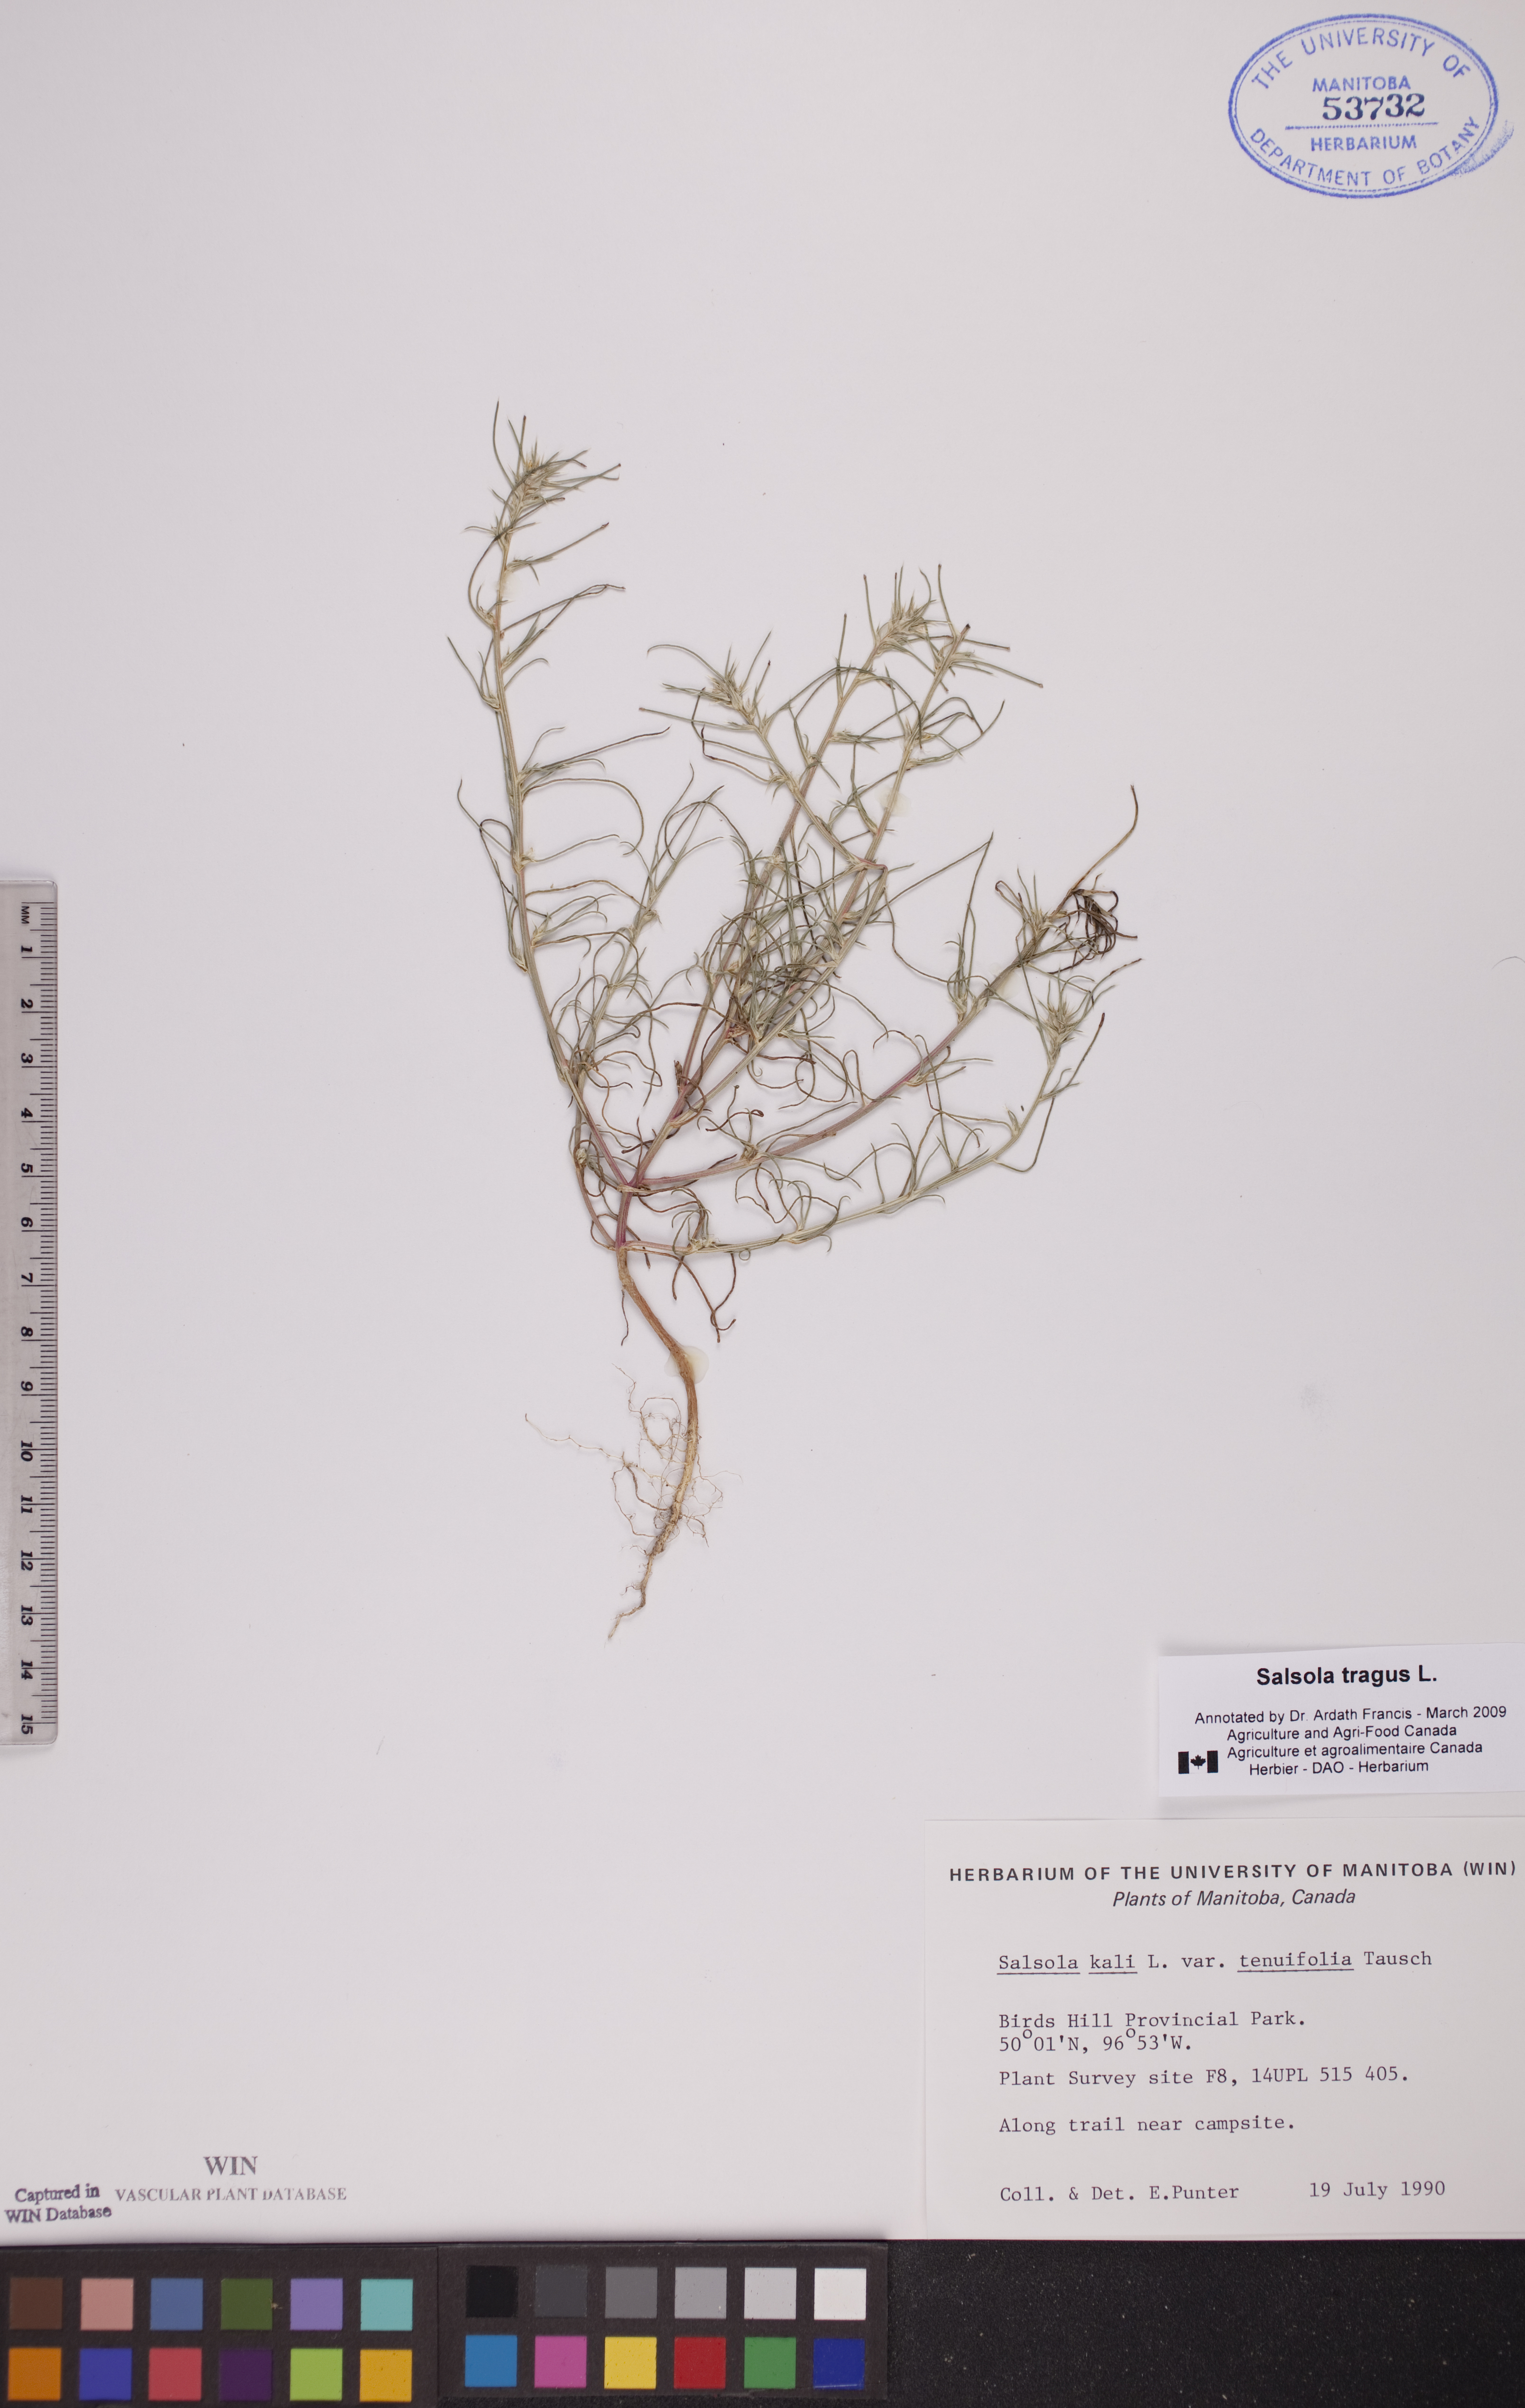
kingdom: Plantae
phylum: Tracheophyta
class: Magnoliopsida
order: Caryophyllales
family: Amaranthaceae
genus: Salsola
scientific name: Salsola tragus
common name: Prickly russian thistle
